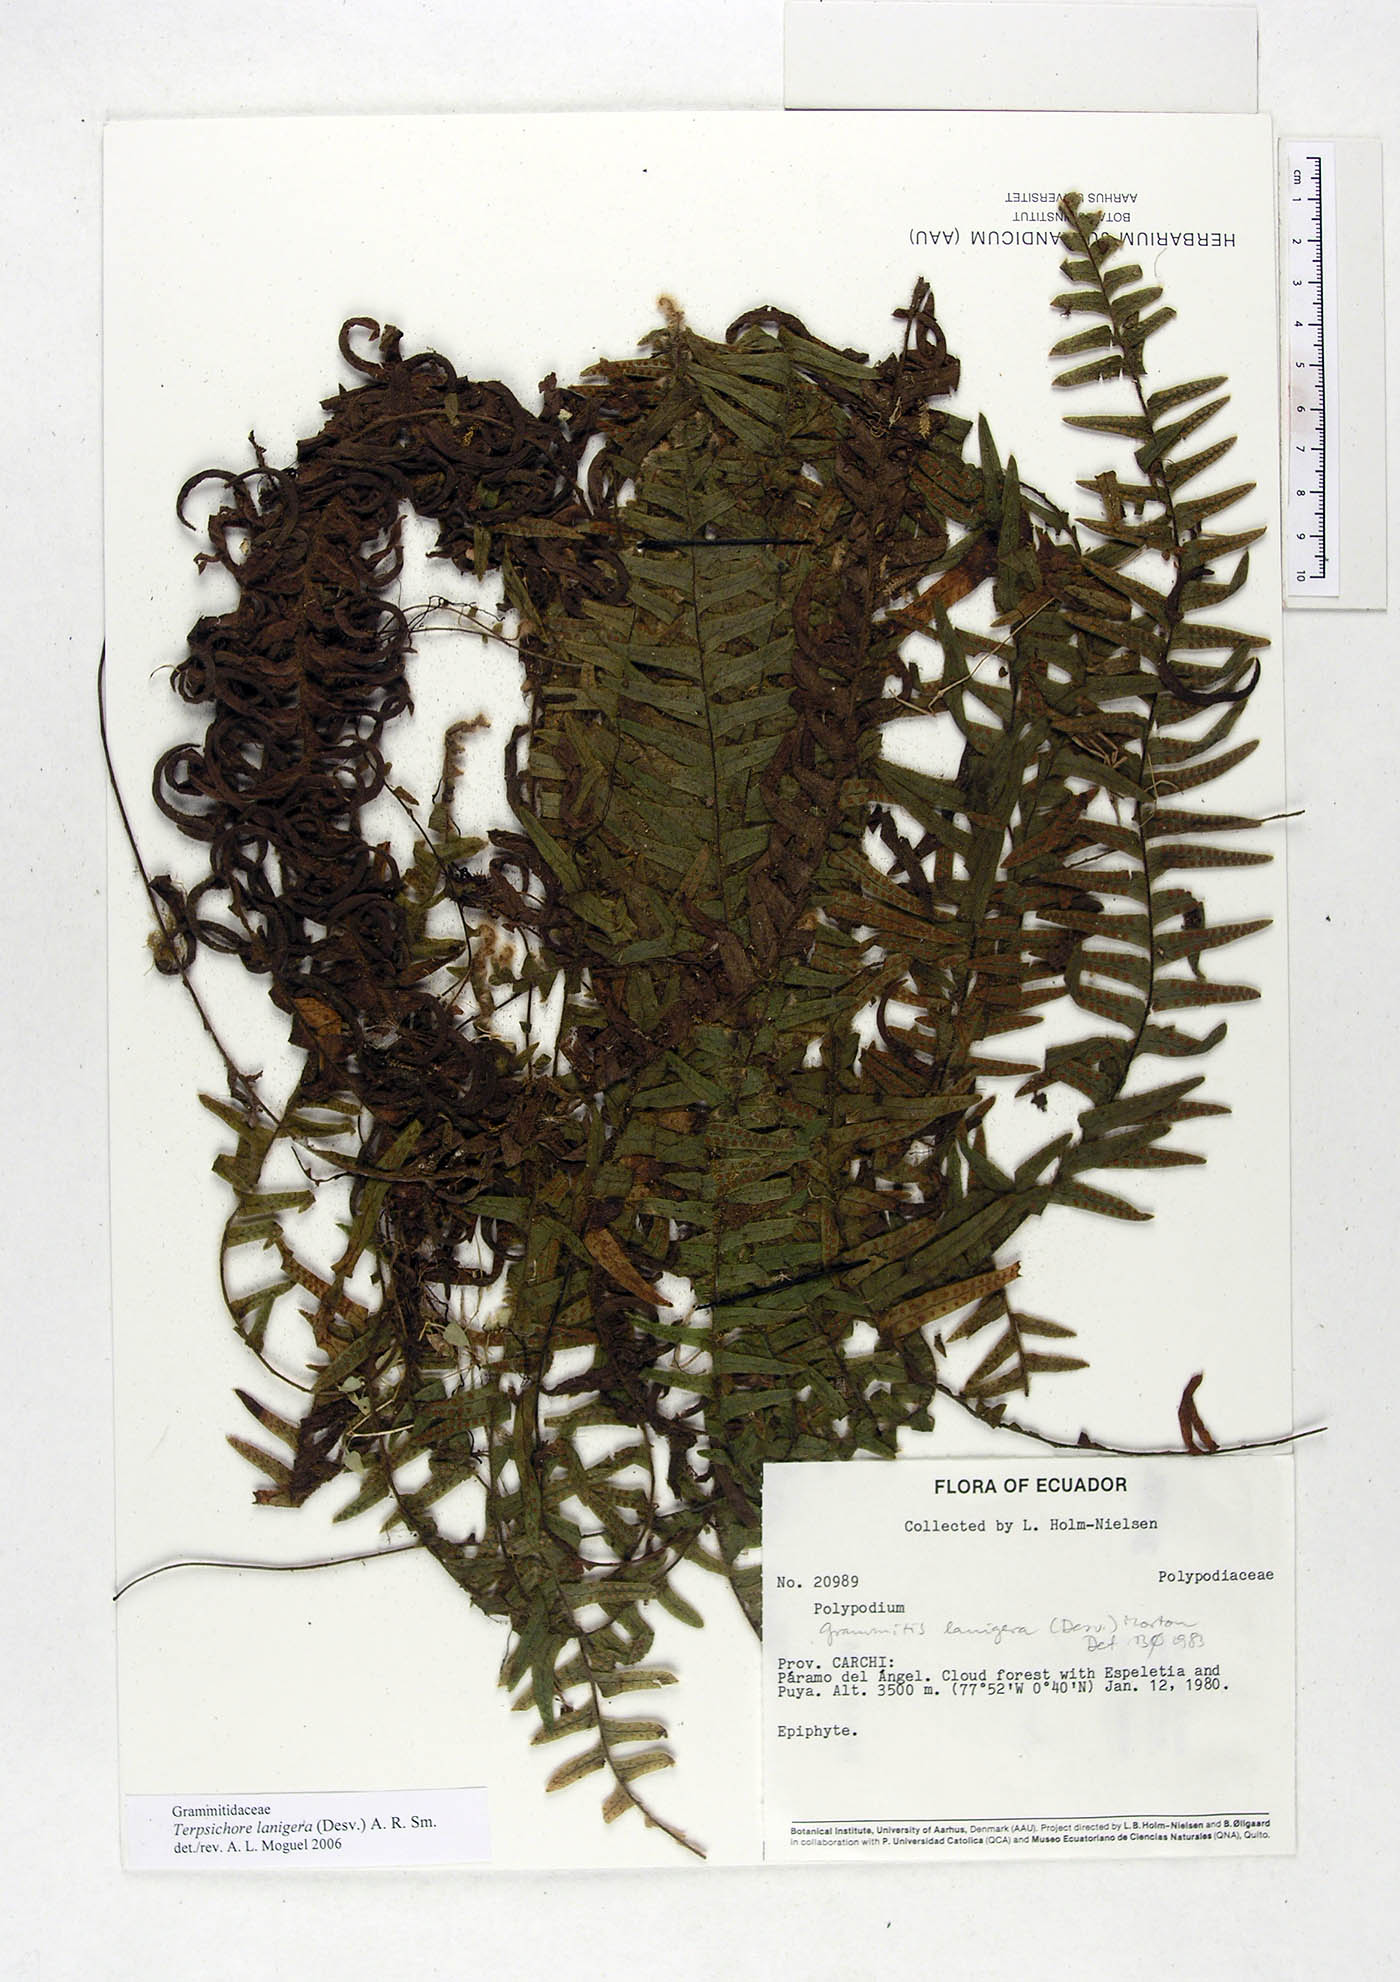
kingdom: Plantae
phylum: Tracheophyta
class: Polypodiopsida
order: Polypodiales
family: Polypodiaceae
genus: Alansmia
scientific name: Alansmia lanigera
